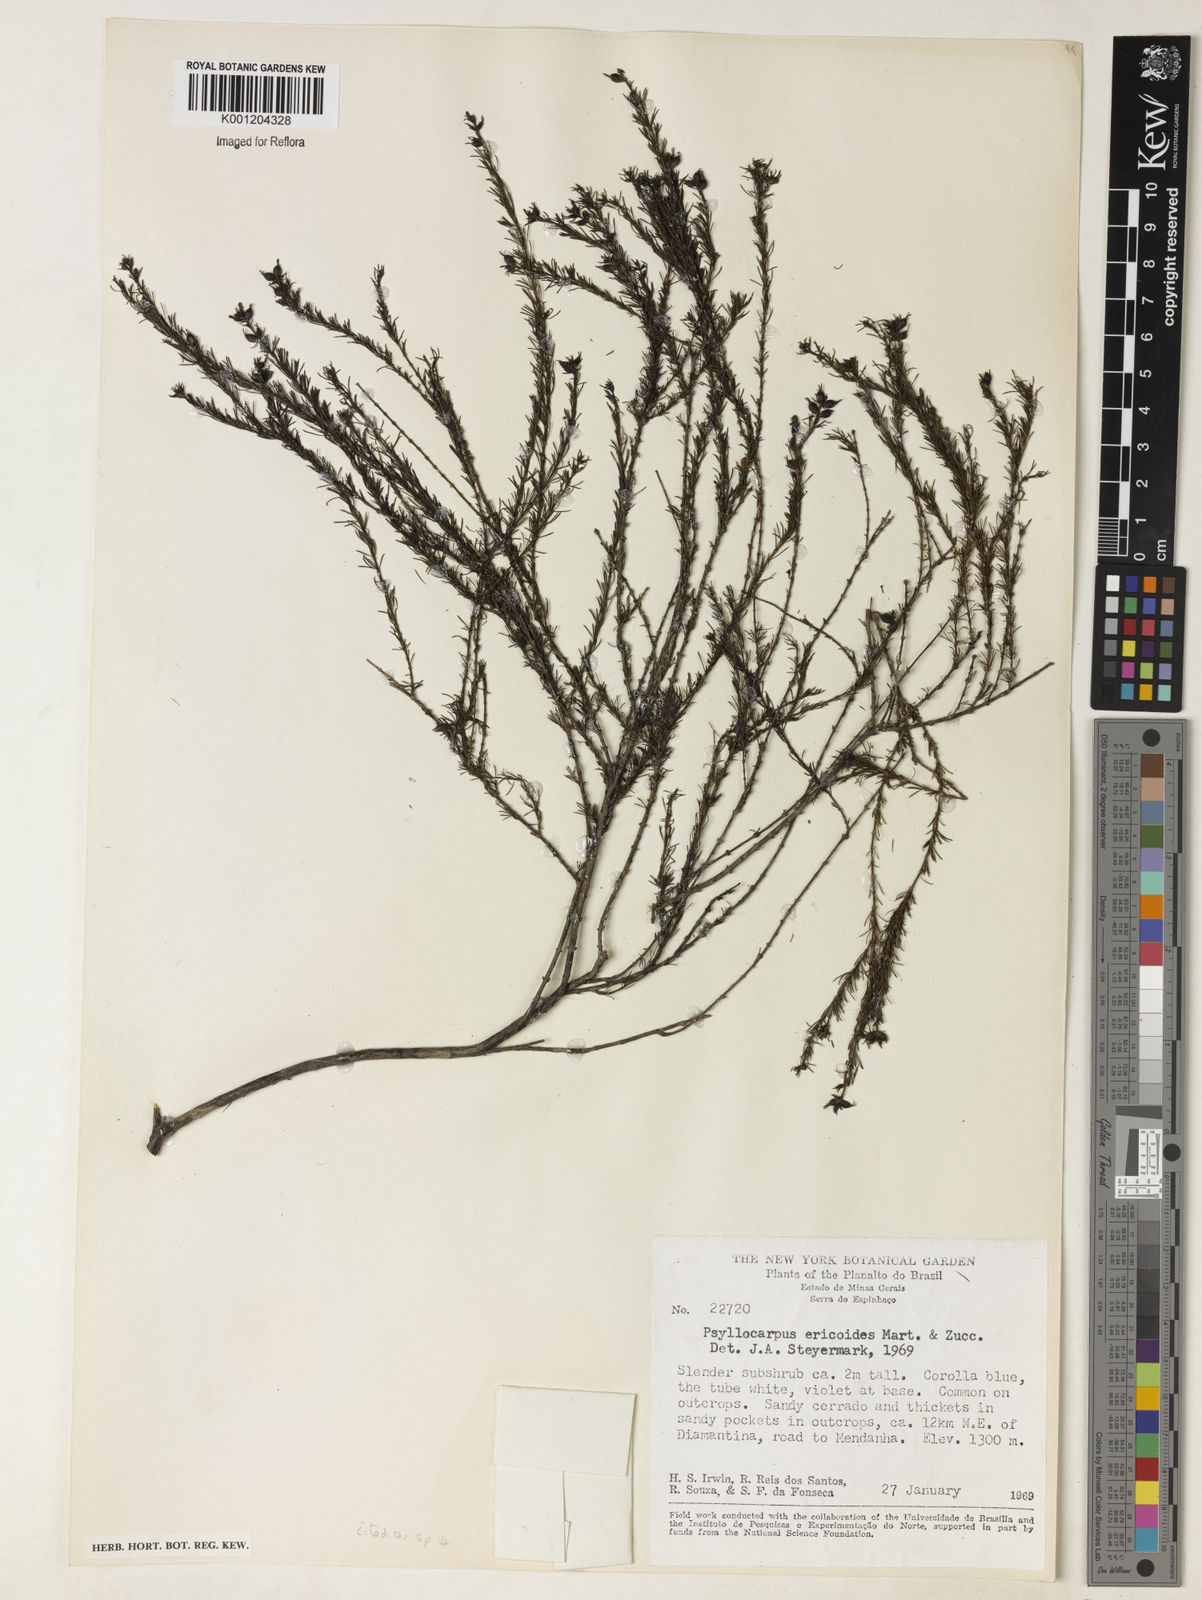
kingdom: Plantae
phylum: Tracheophyta
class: Magnoliopsida
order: Gentianales
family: Rubiaceae
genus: Psyllocarpus
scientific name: Psyllocarpus laricoides
